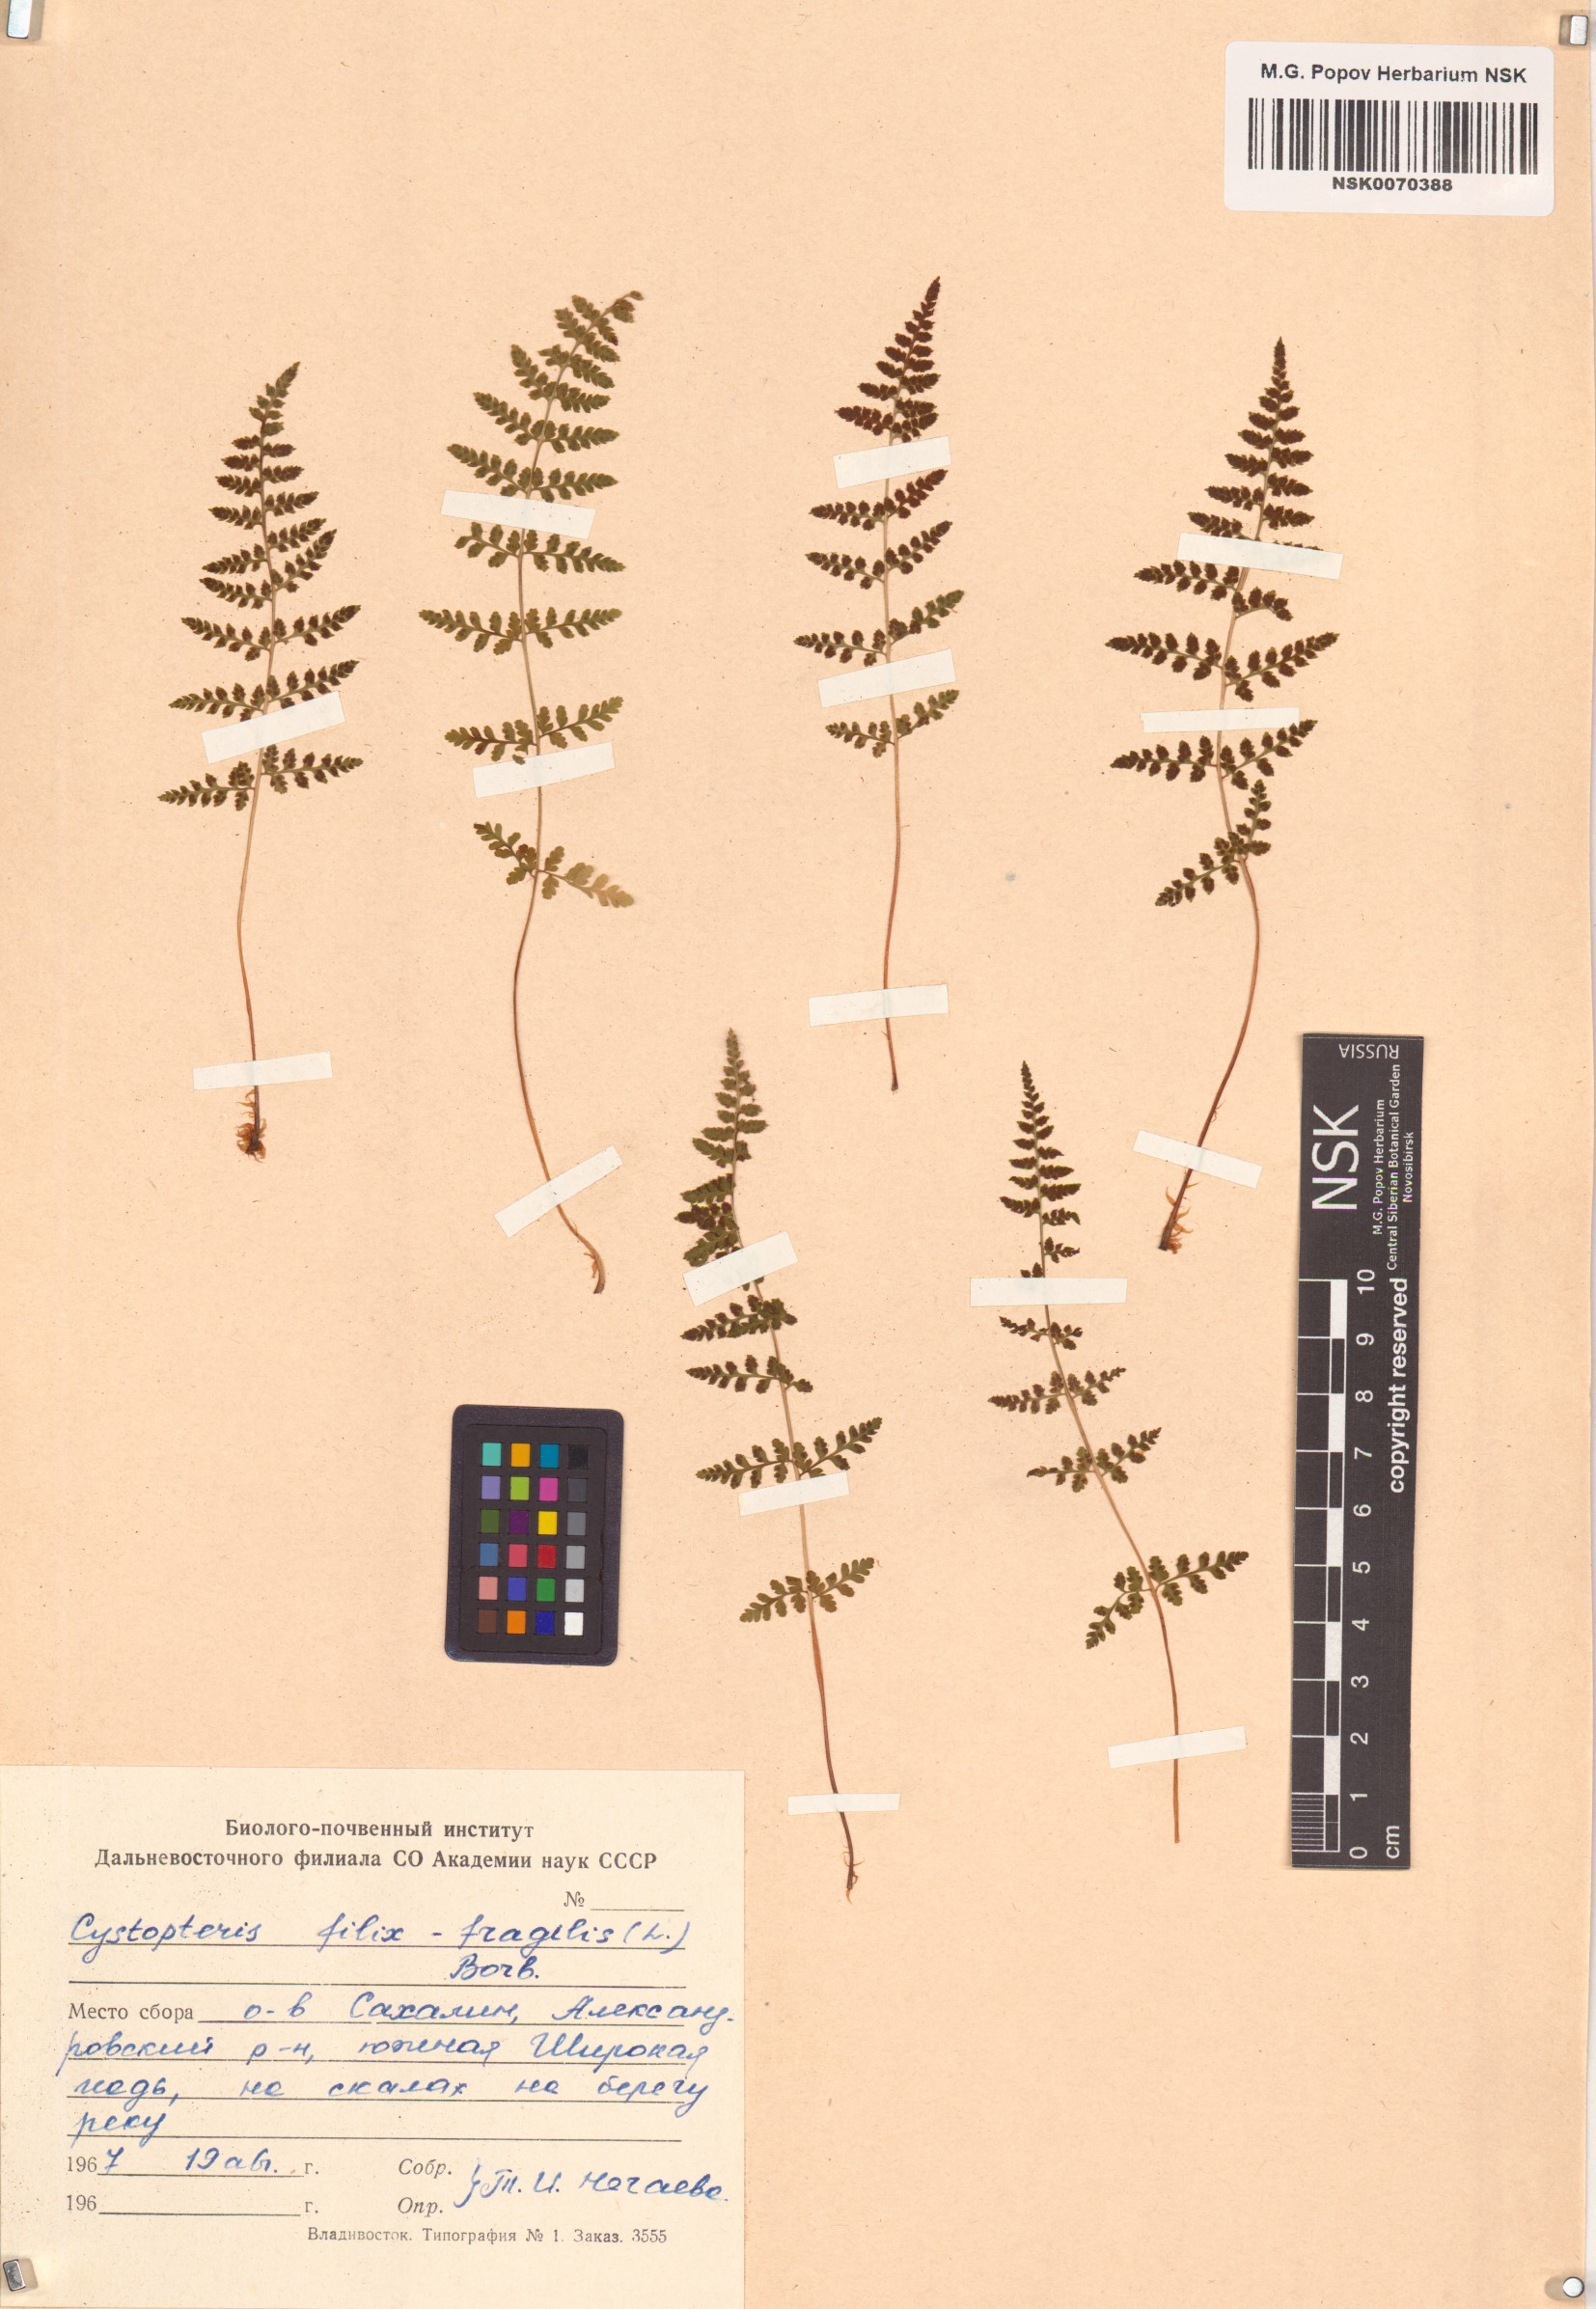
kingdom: Plantae
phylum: Tracheophyta
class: Polypodiopsida
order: Polypodiales
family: Cystopteridaceae
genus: Cystopteris
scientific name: Cystopteris fragilis
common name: Brittle bladder fern
